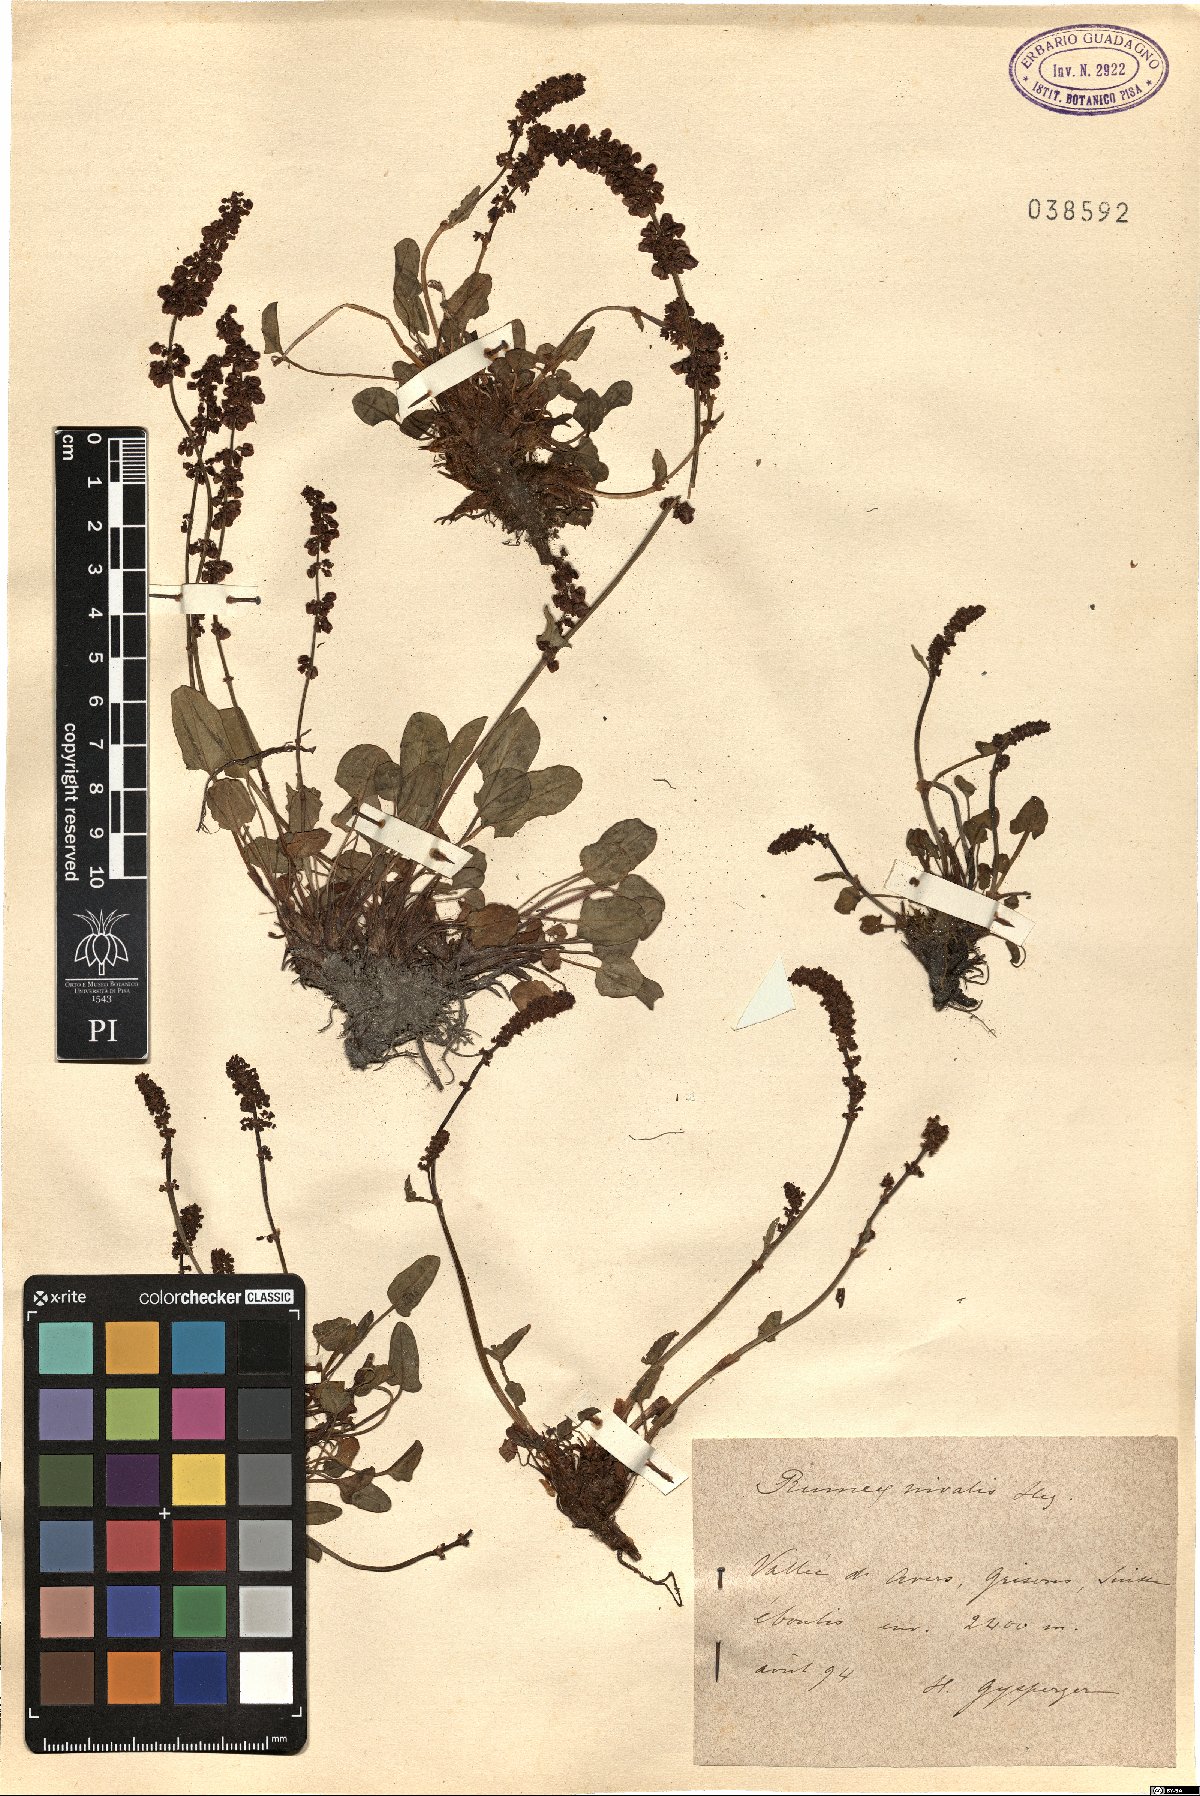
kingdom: Plantae
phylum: Tracheophyta
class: Magnoliopsida
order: Caryophyllales
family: Polygonaceae
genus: Rumex
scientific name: Rumex nivalis
